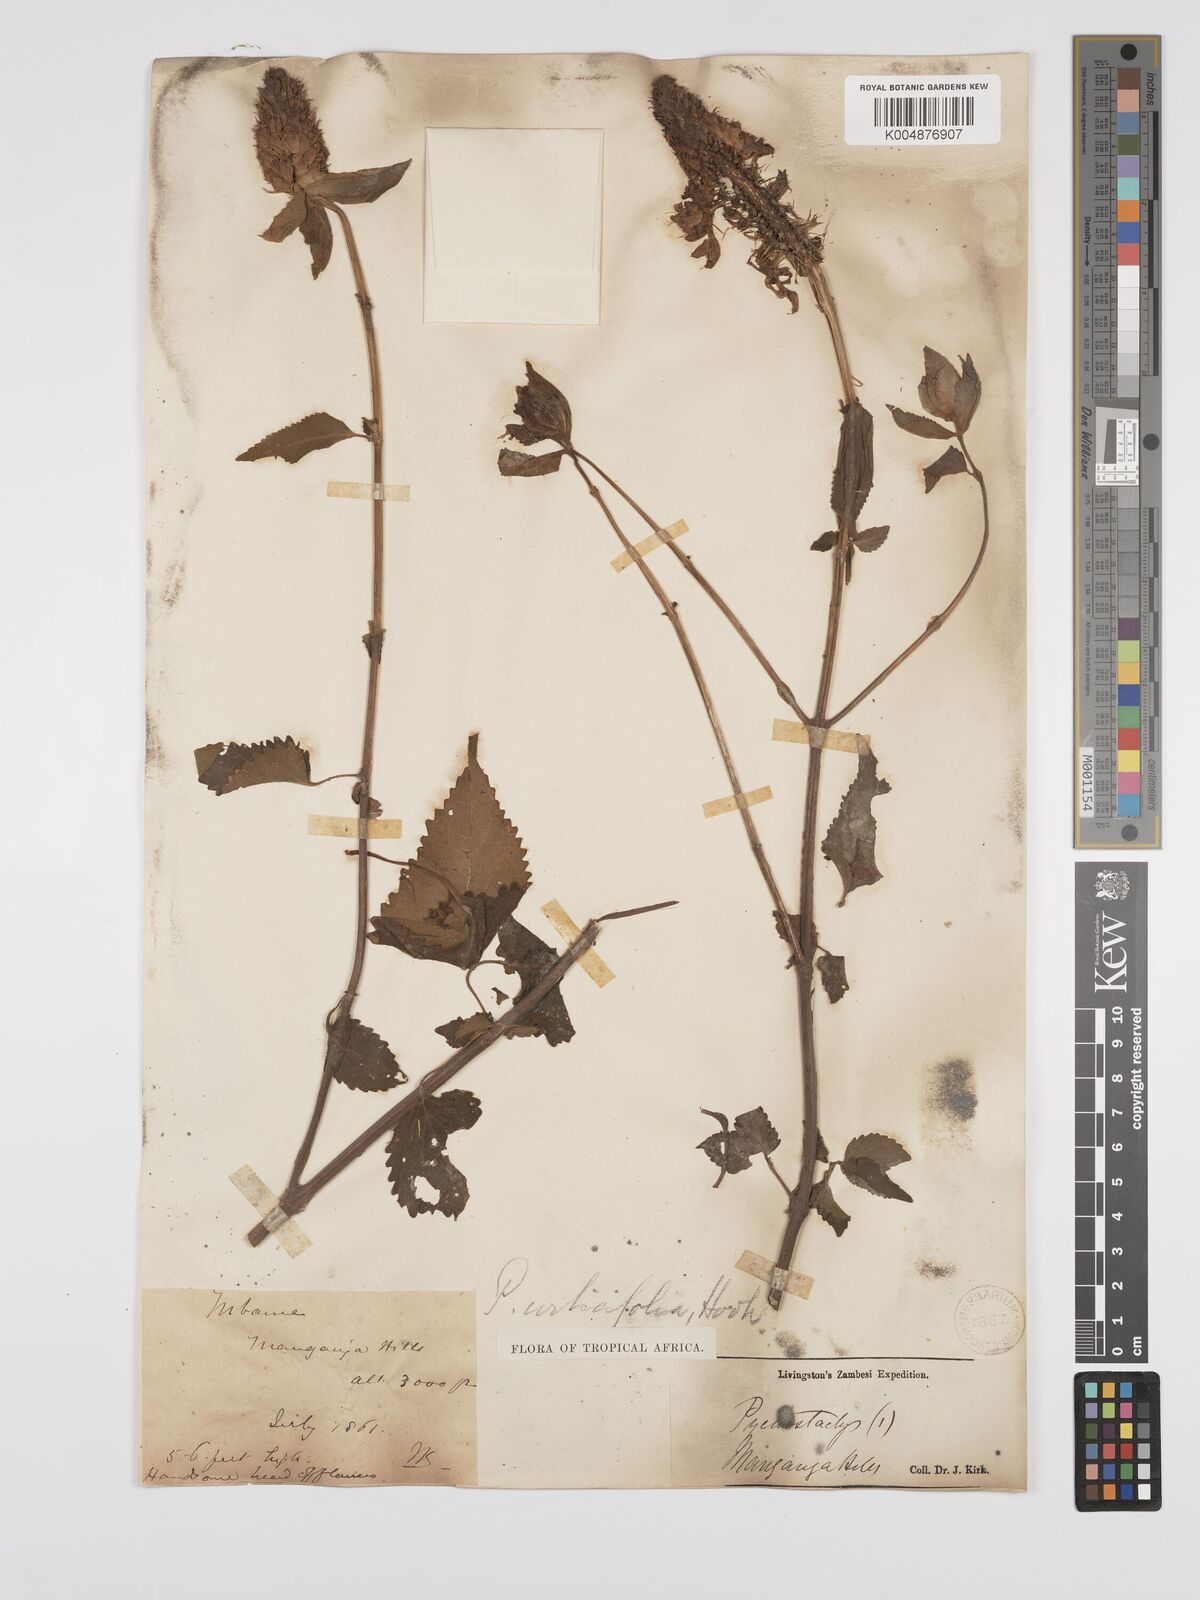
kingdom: Plantae
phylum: Tracheophyta
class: Magnoliopsida
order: Lamiales
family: Lamiaceae
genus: Coleus
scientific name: Coleus livingstonei
